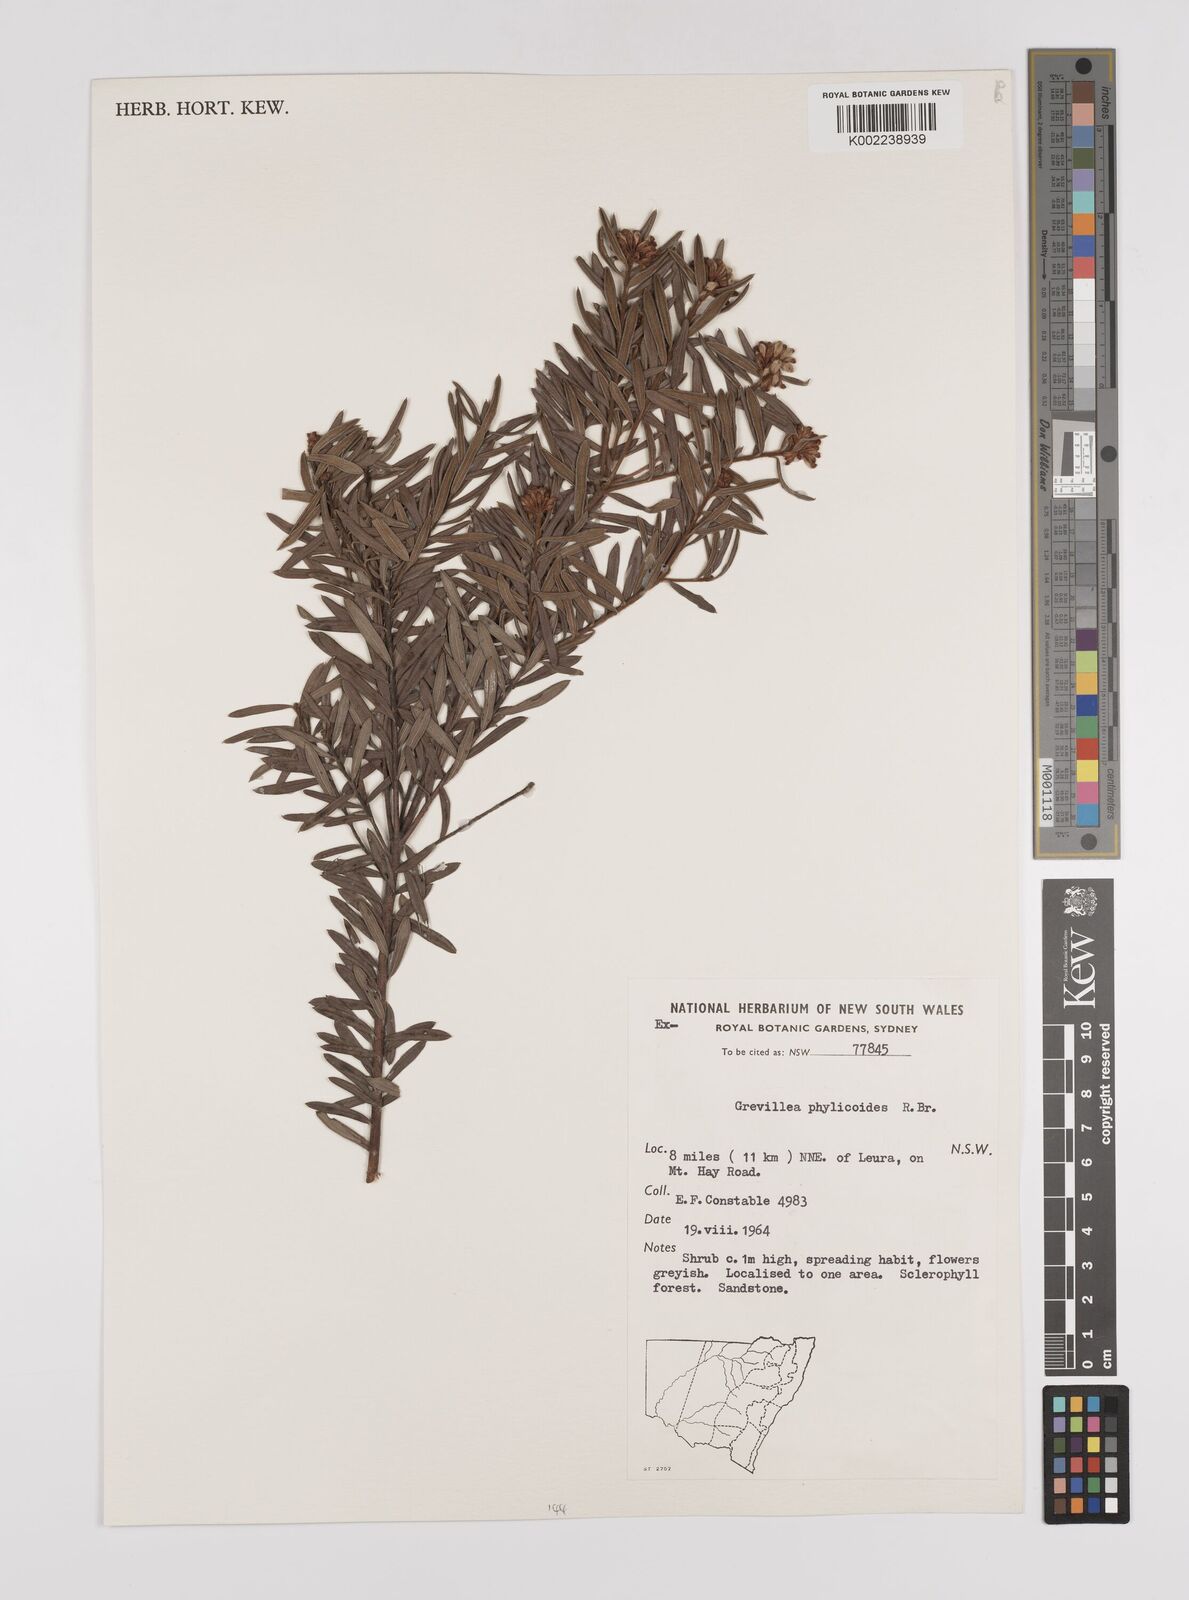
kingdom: Plantae
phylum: Tracheophyta
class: Magnoliopsida
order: Proteales
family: Proteaceae
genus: Grevillea
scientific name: Grevillea phylicoides
